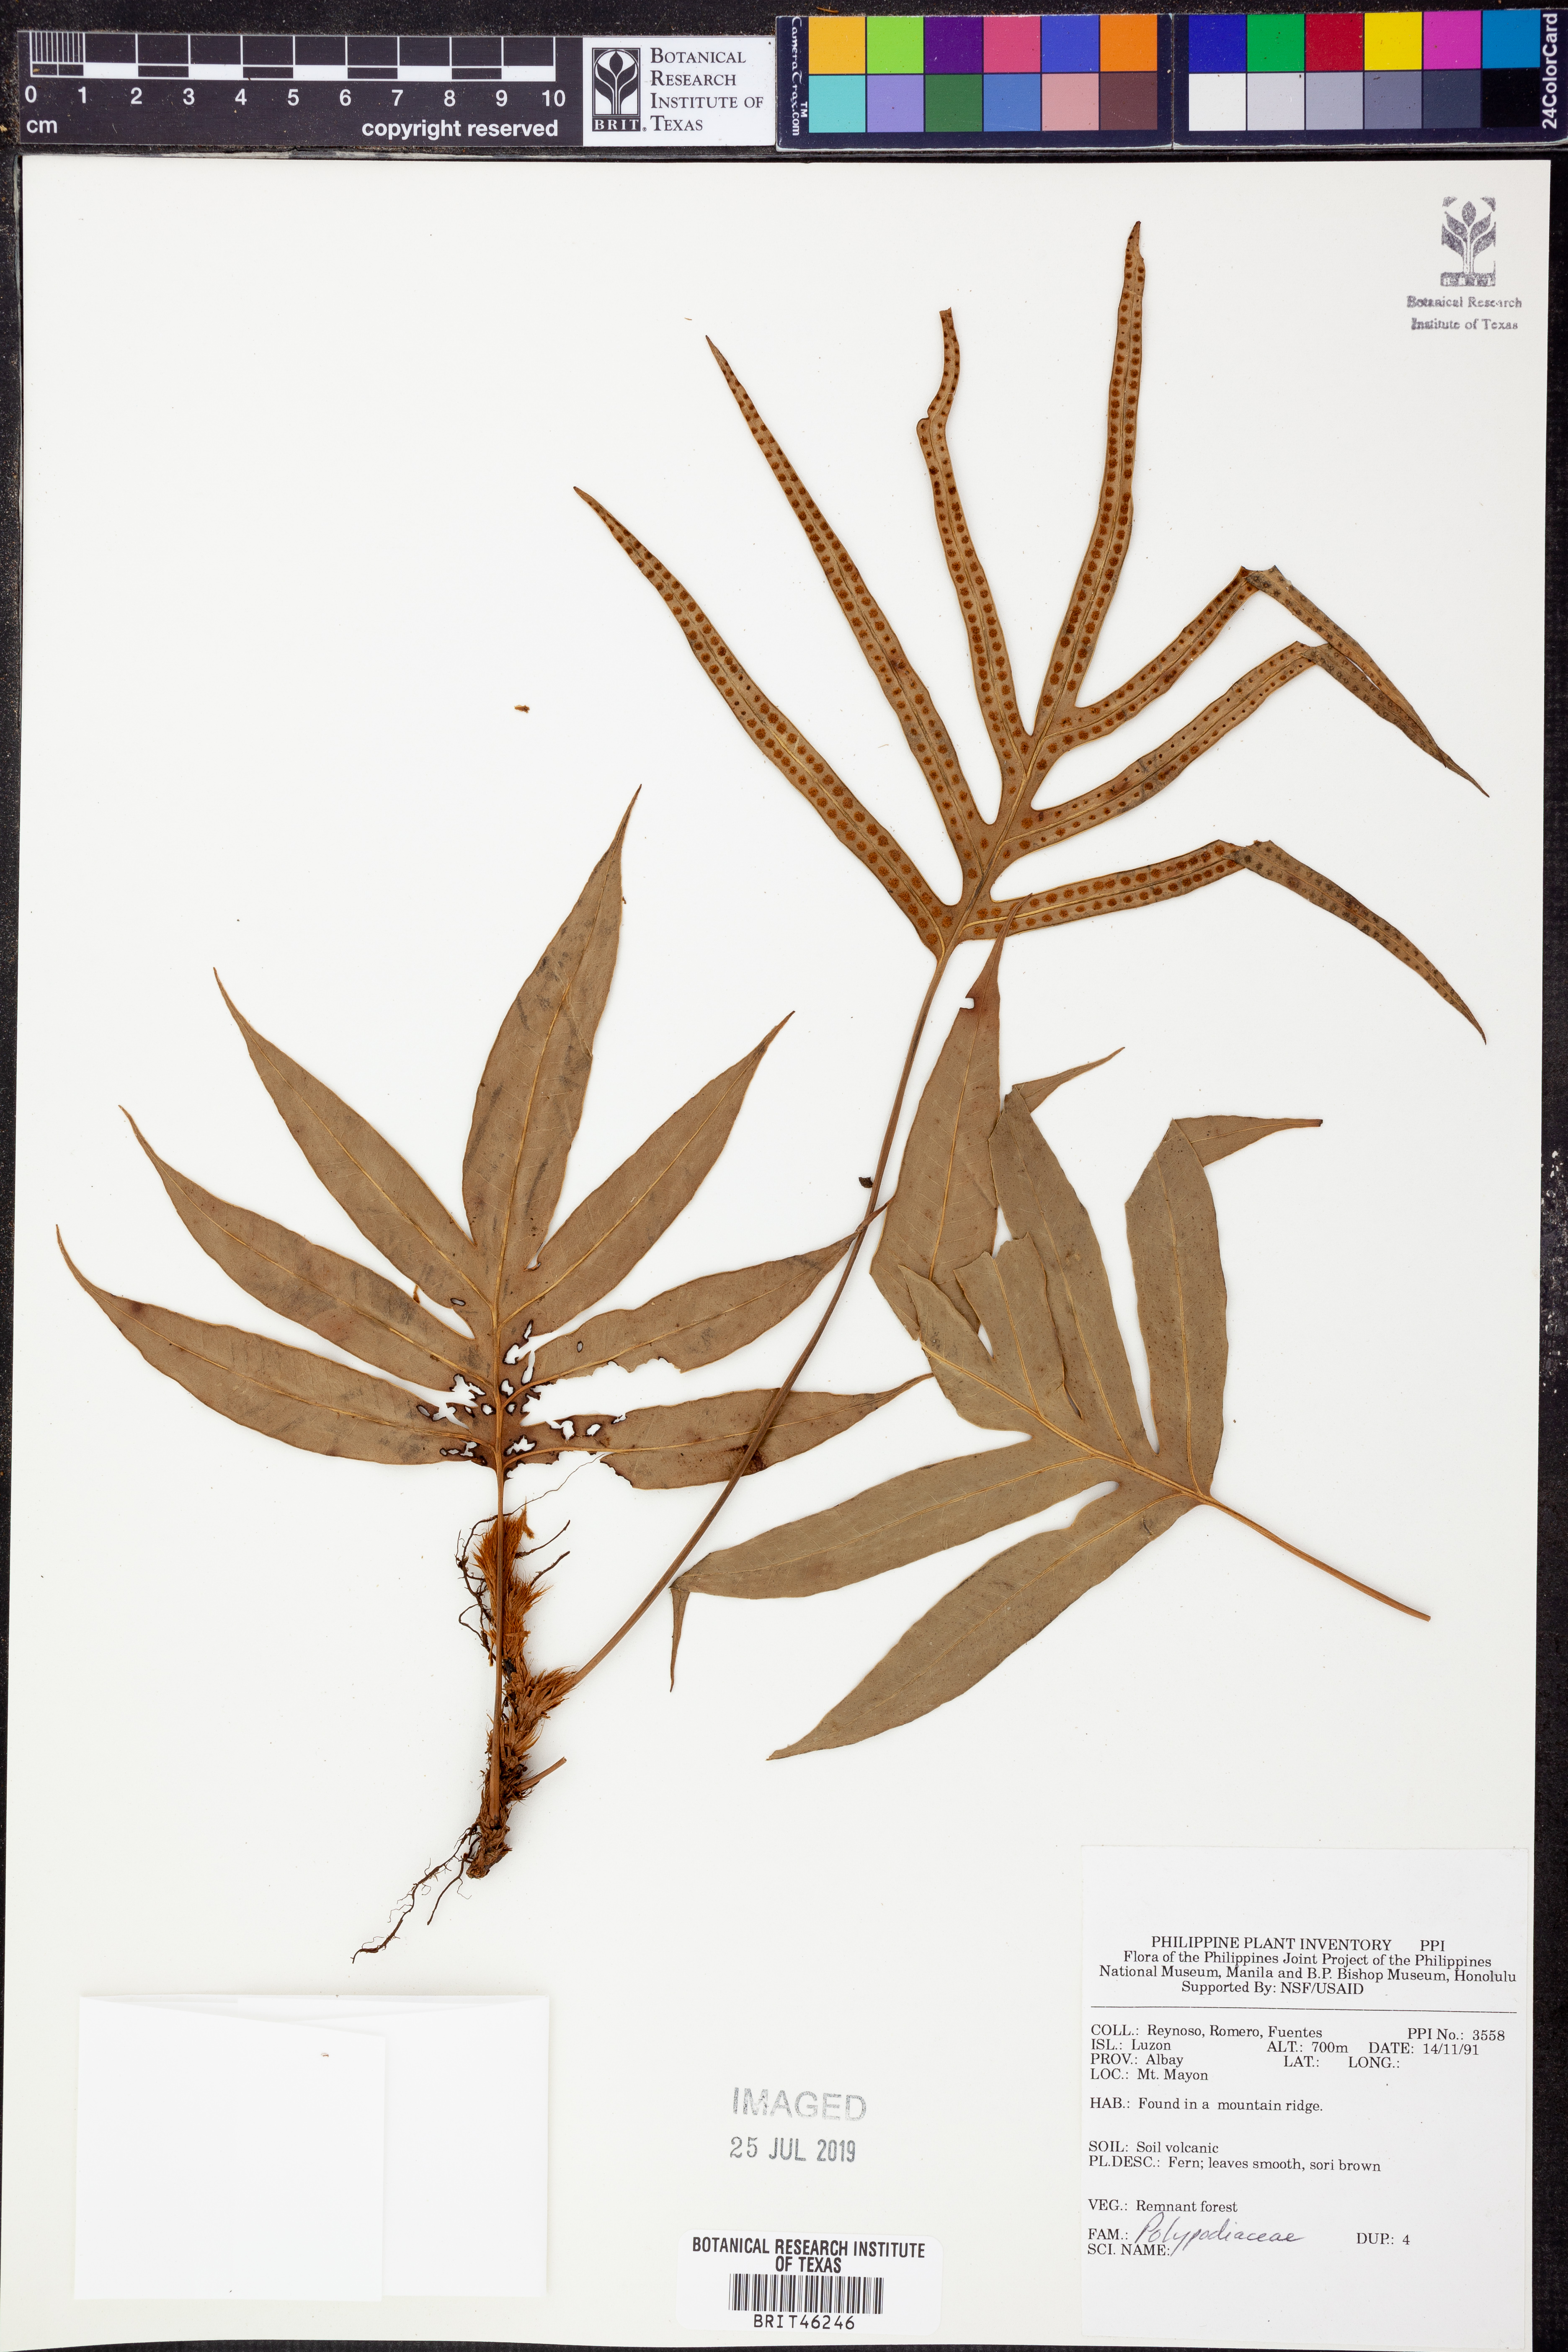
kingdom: Plantae
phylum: Tracheophyta
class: Polypodiopsida
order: Polypodiales
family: Polypodiaceae
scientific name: Polypodiaceae
